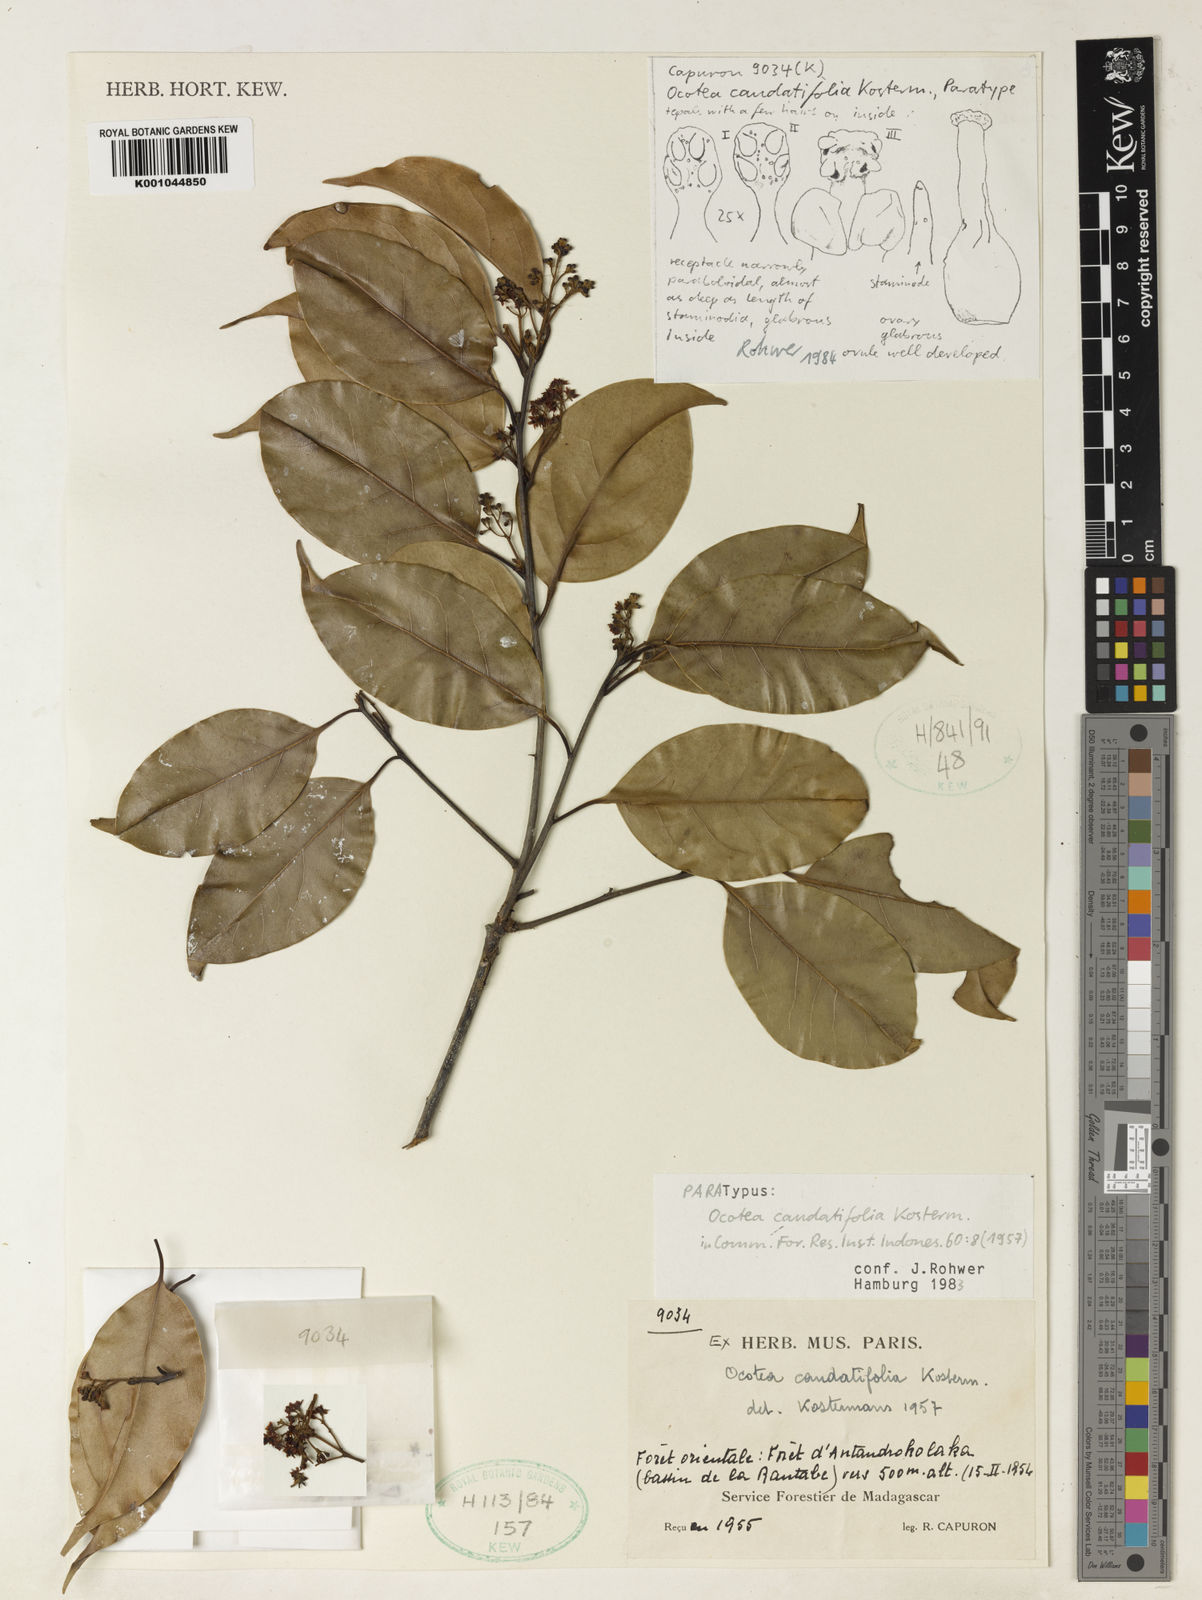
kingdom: Plantae
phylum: Tracheophyta
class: Magnoliopsida
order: Laurales
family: Lauraceae
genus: Ocotea
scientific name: Ocotea caudatifolia
